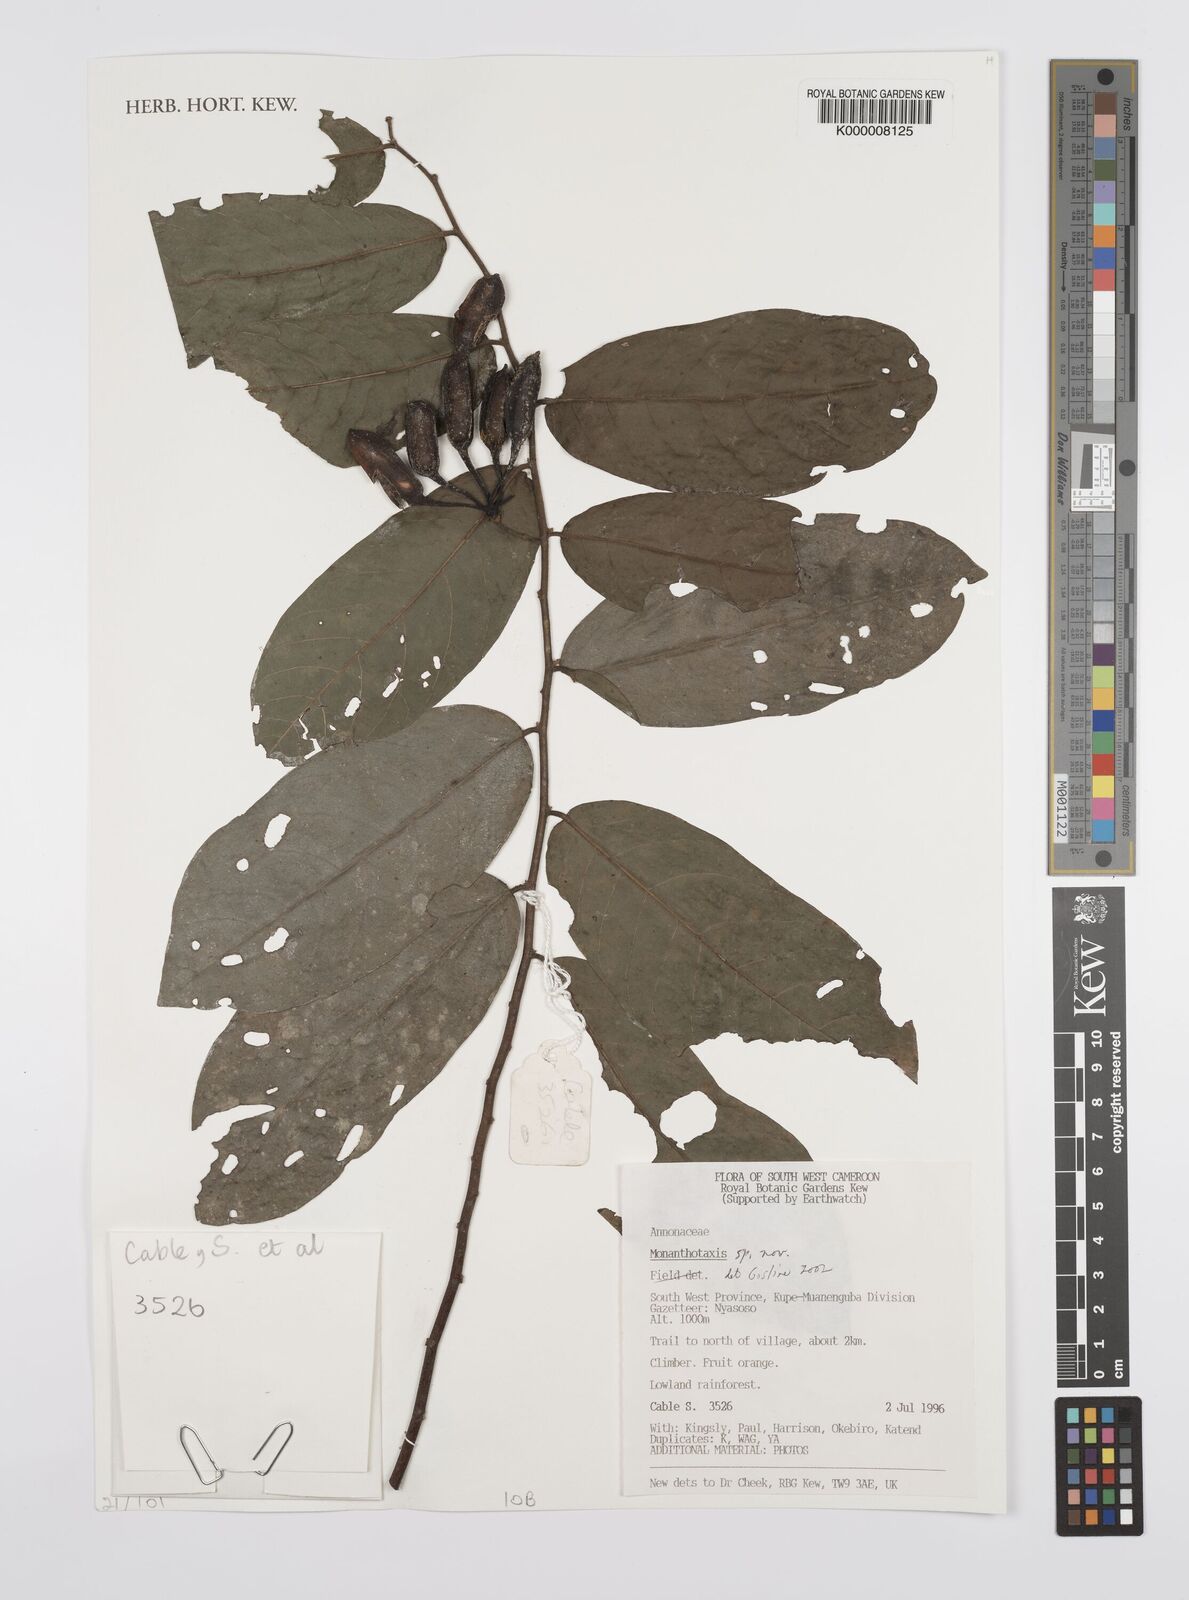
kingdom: Plantae
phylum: Tracheophyta
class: Magnoliopsida
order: Magnoliales
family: Annonaceae
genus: Monanthotaxis
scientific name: Monanthotaxis
